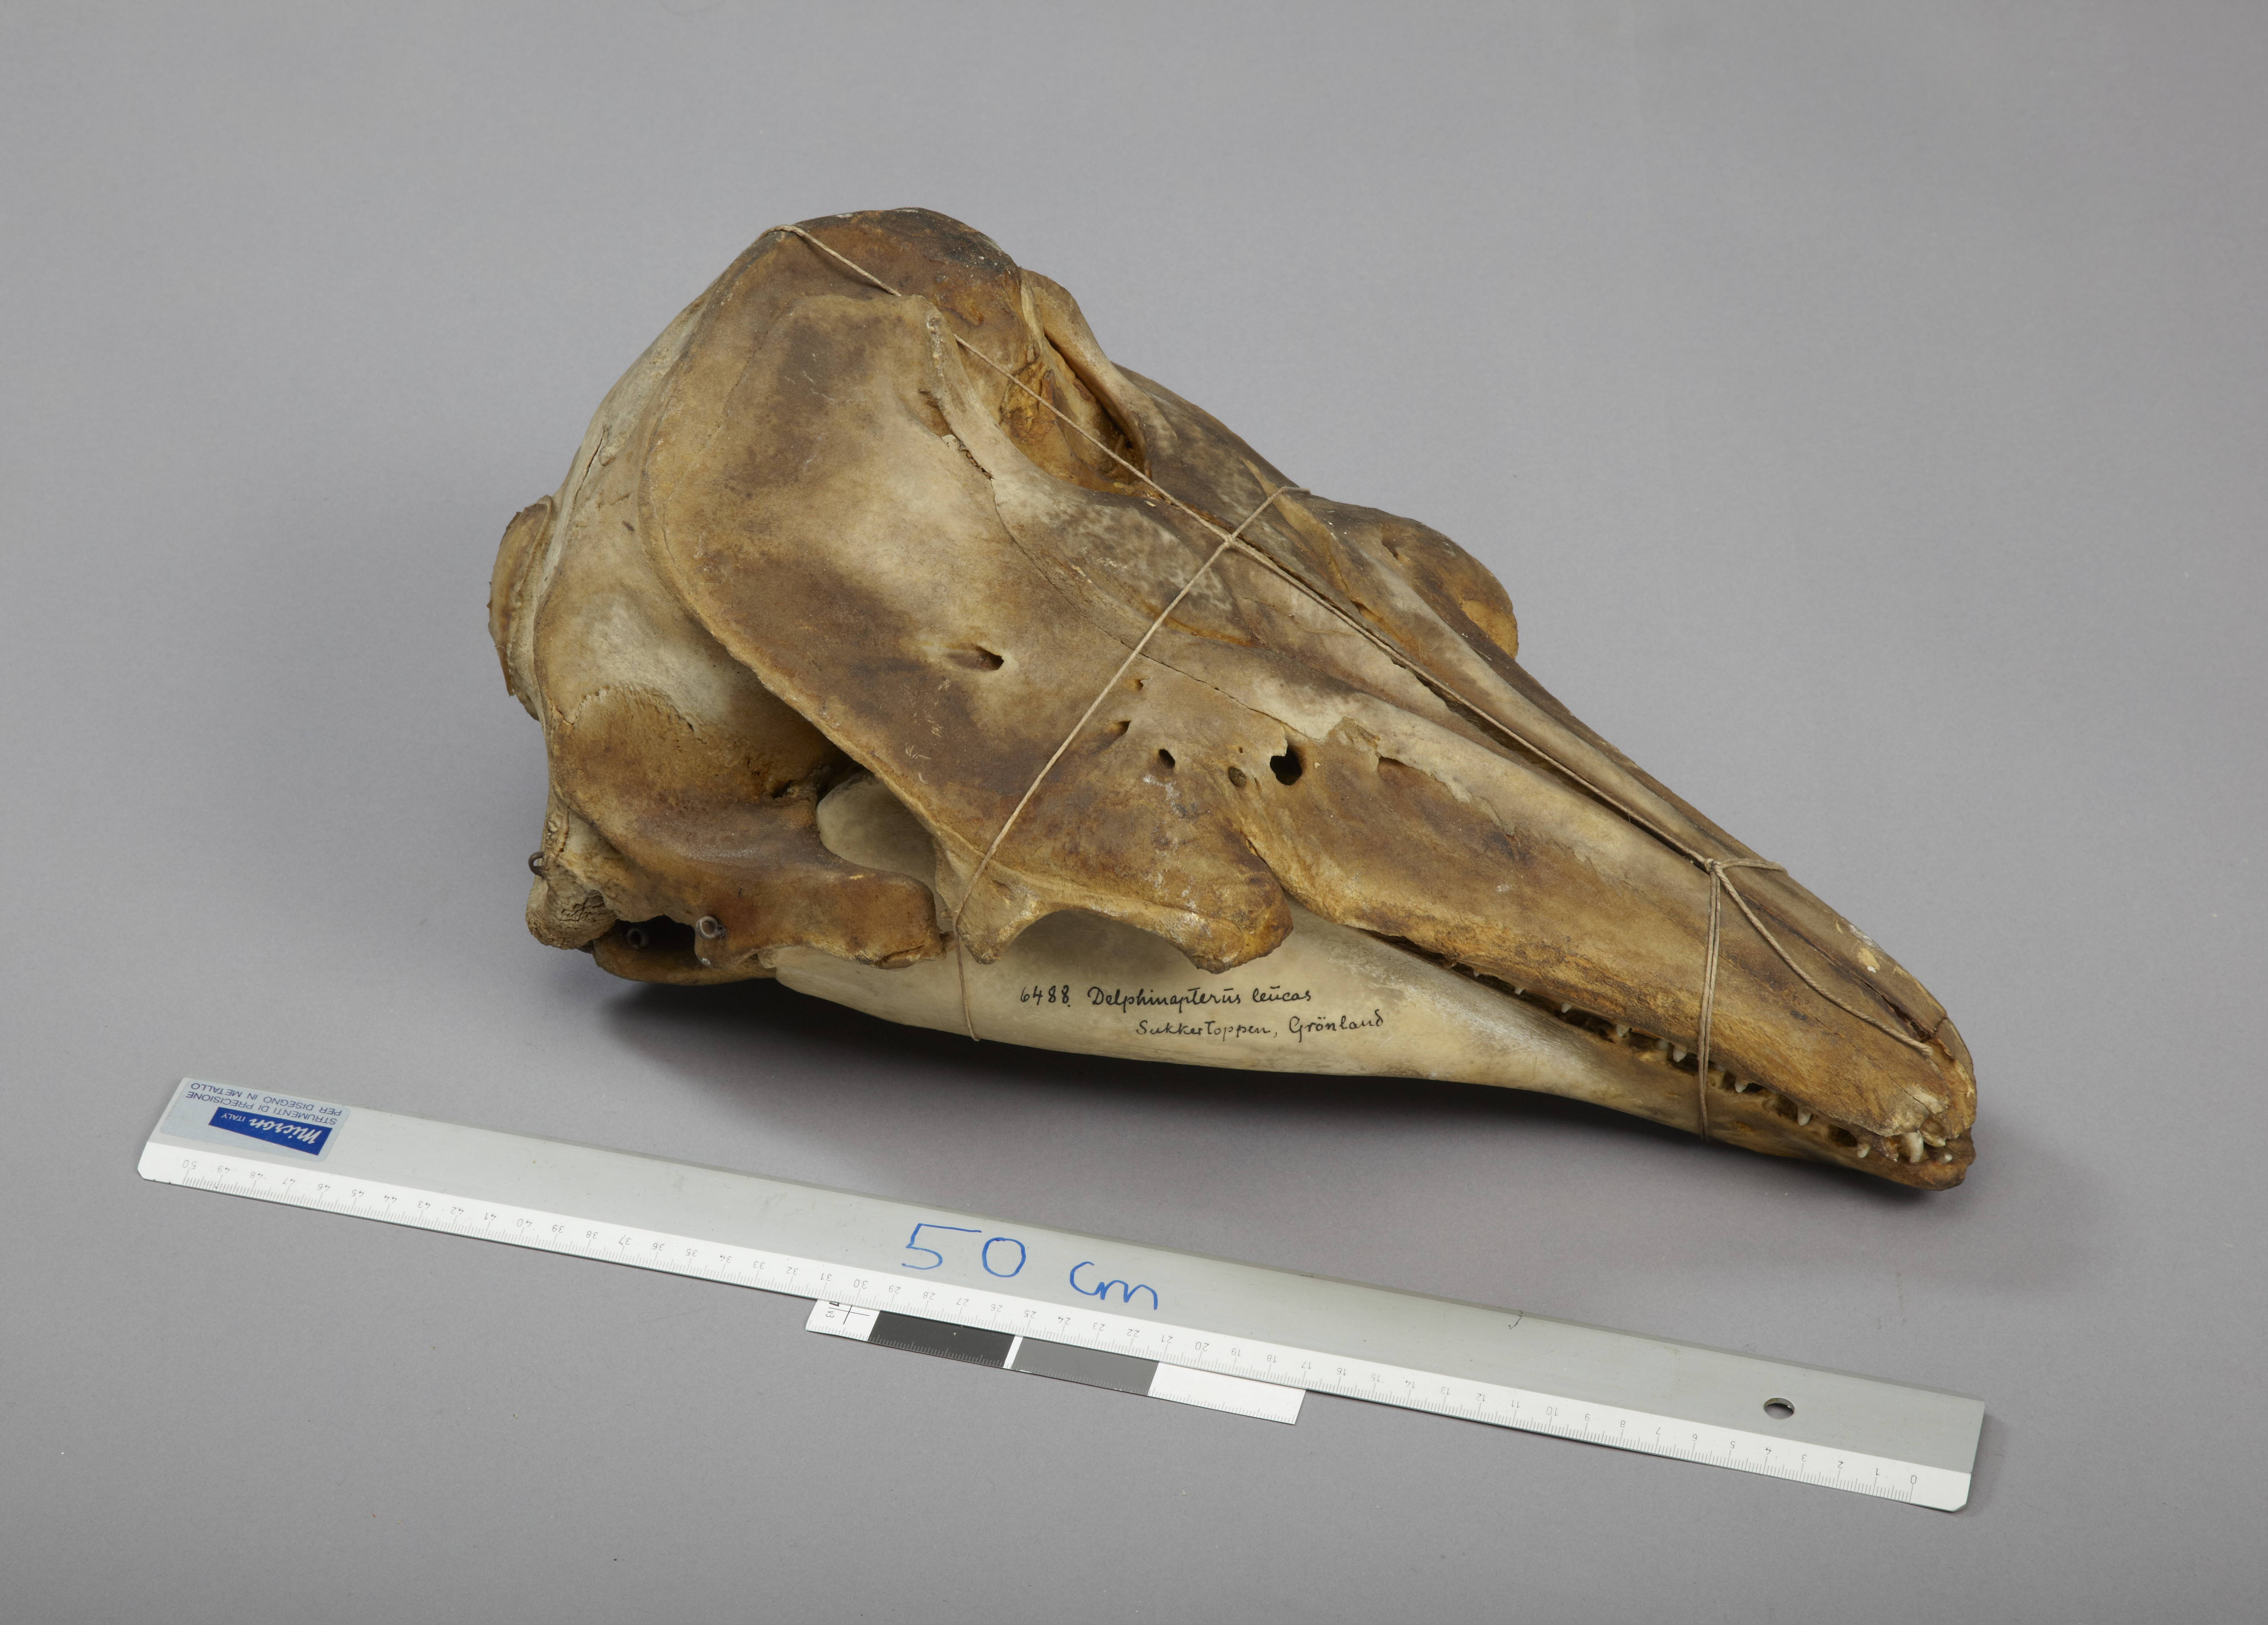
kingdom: Animalia
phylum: Chordata
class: Mammalia
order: Cetacea
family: Monodontidae
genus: Delphinapterus
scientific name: Delphinapterus leucas
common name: Beluga
